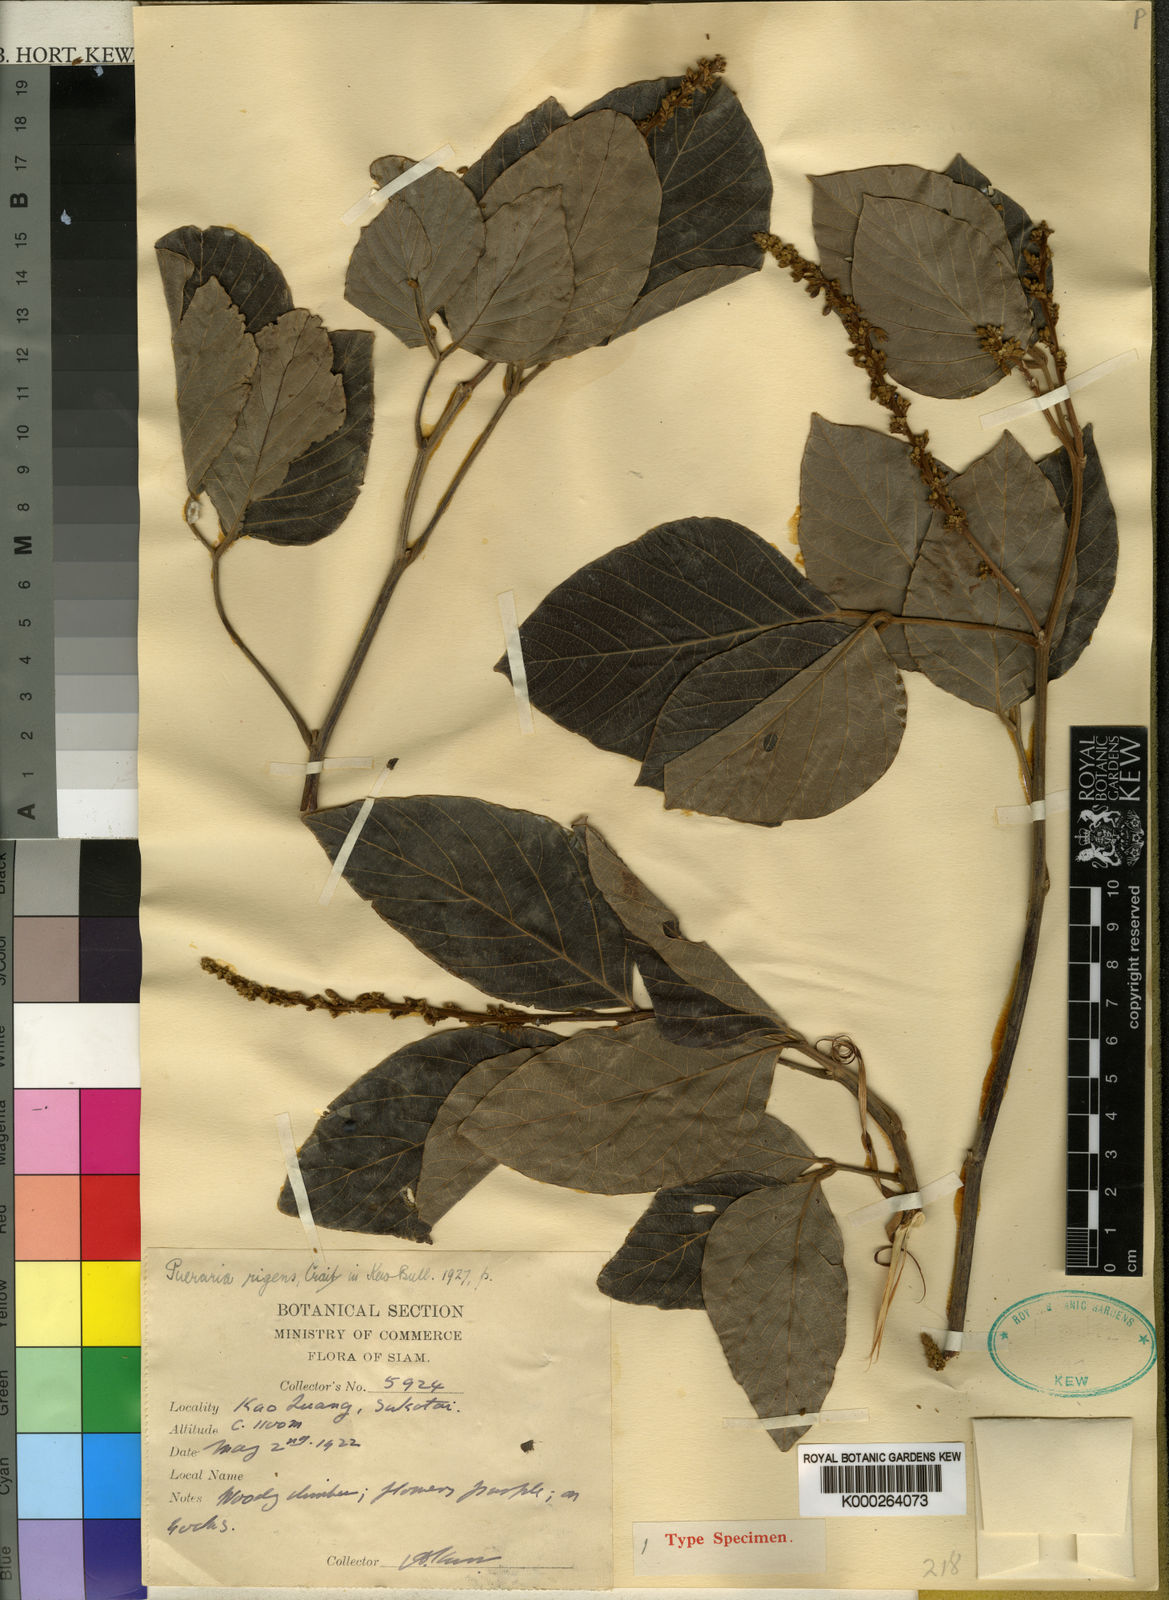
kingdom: Plantae
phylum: Tracheophyta
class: Magnoliopsida
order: Fabales
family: Fabaceae
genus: Millettia
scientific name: Millettia rigens
